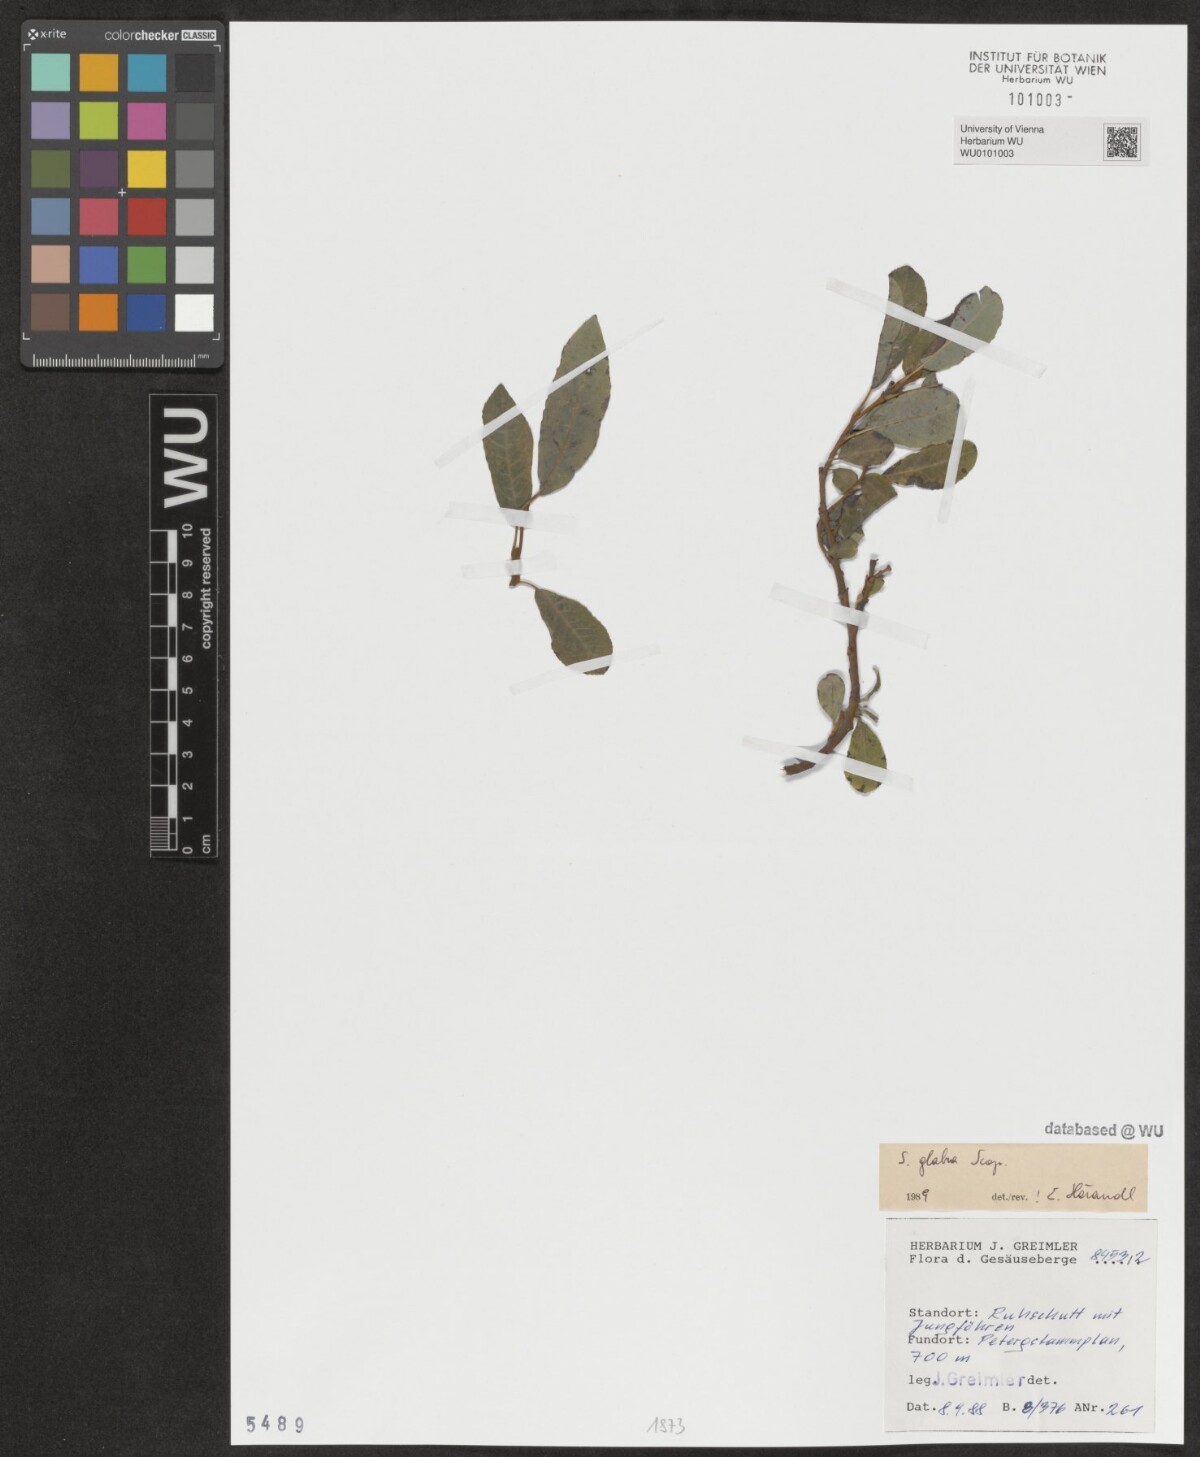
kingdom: Plantae
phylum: Tracheophyta
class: Magnoliopsida
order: Malpighiales
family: Salicaceae
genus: Salix
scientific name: Salix glabra
